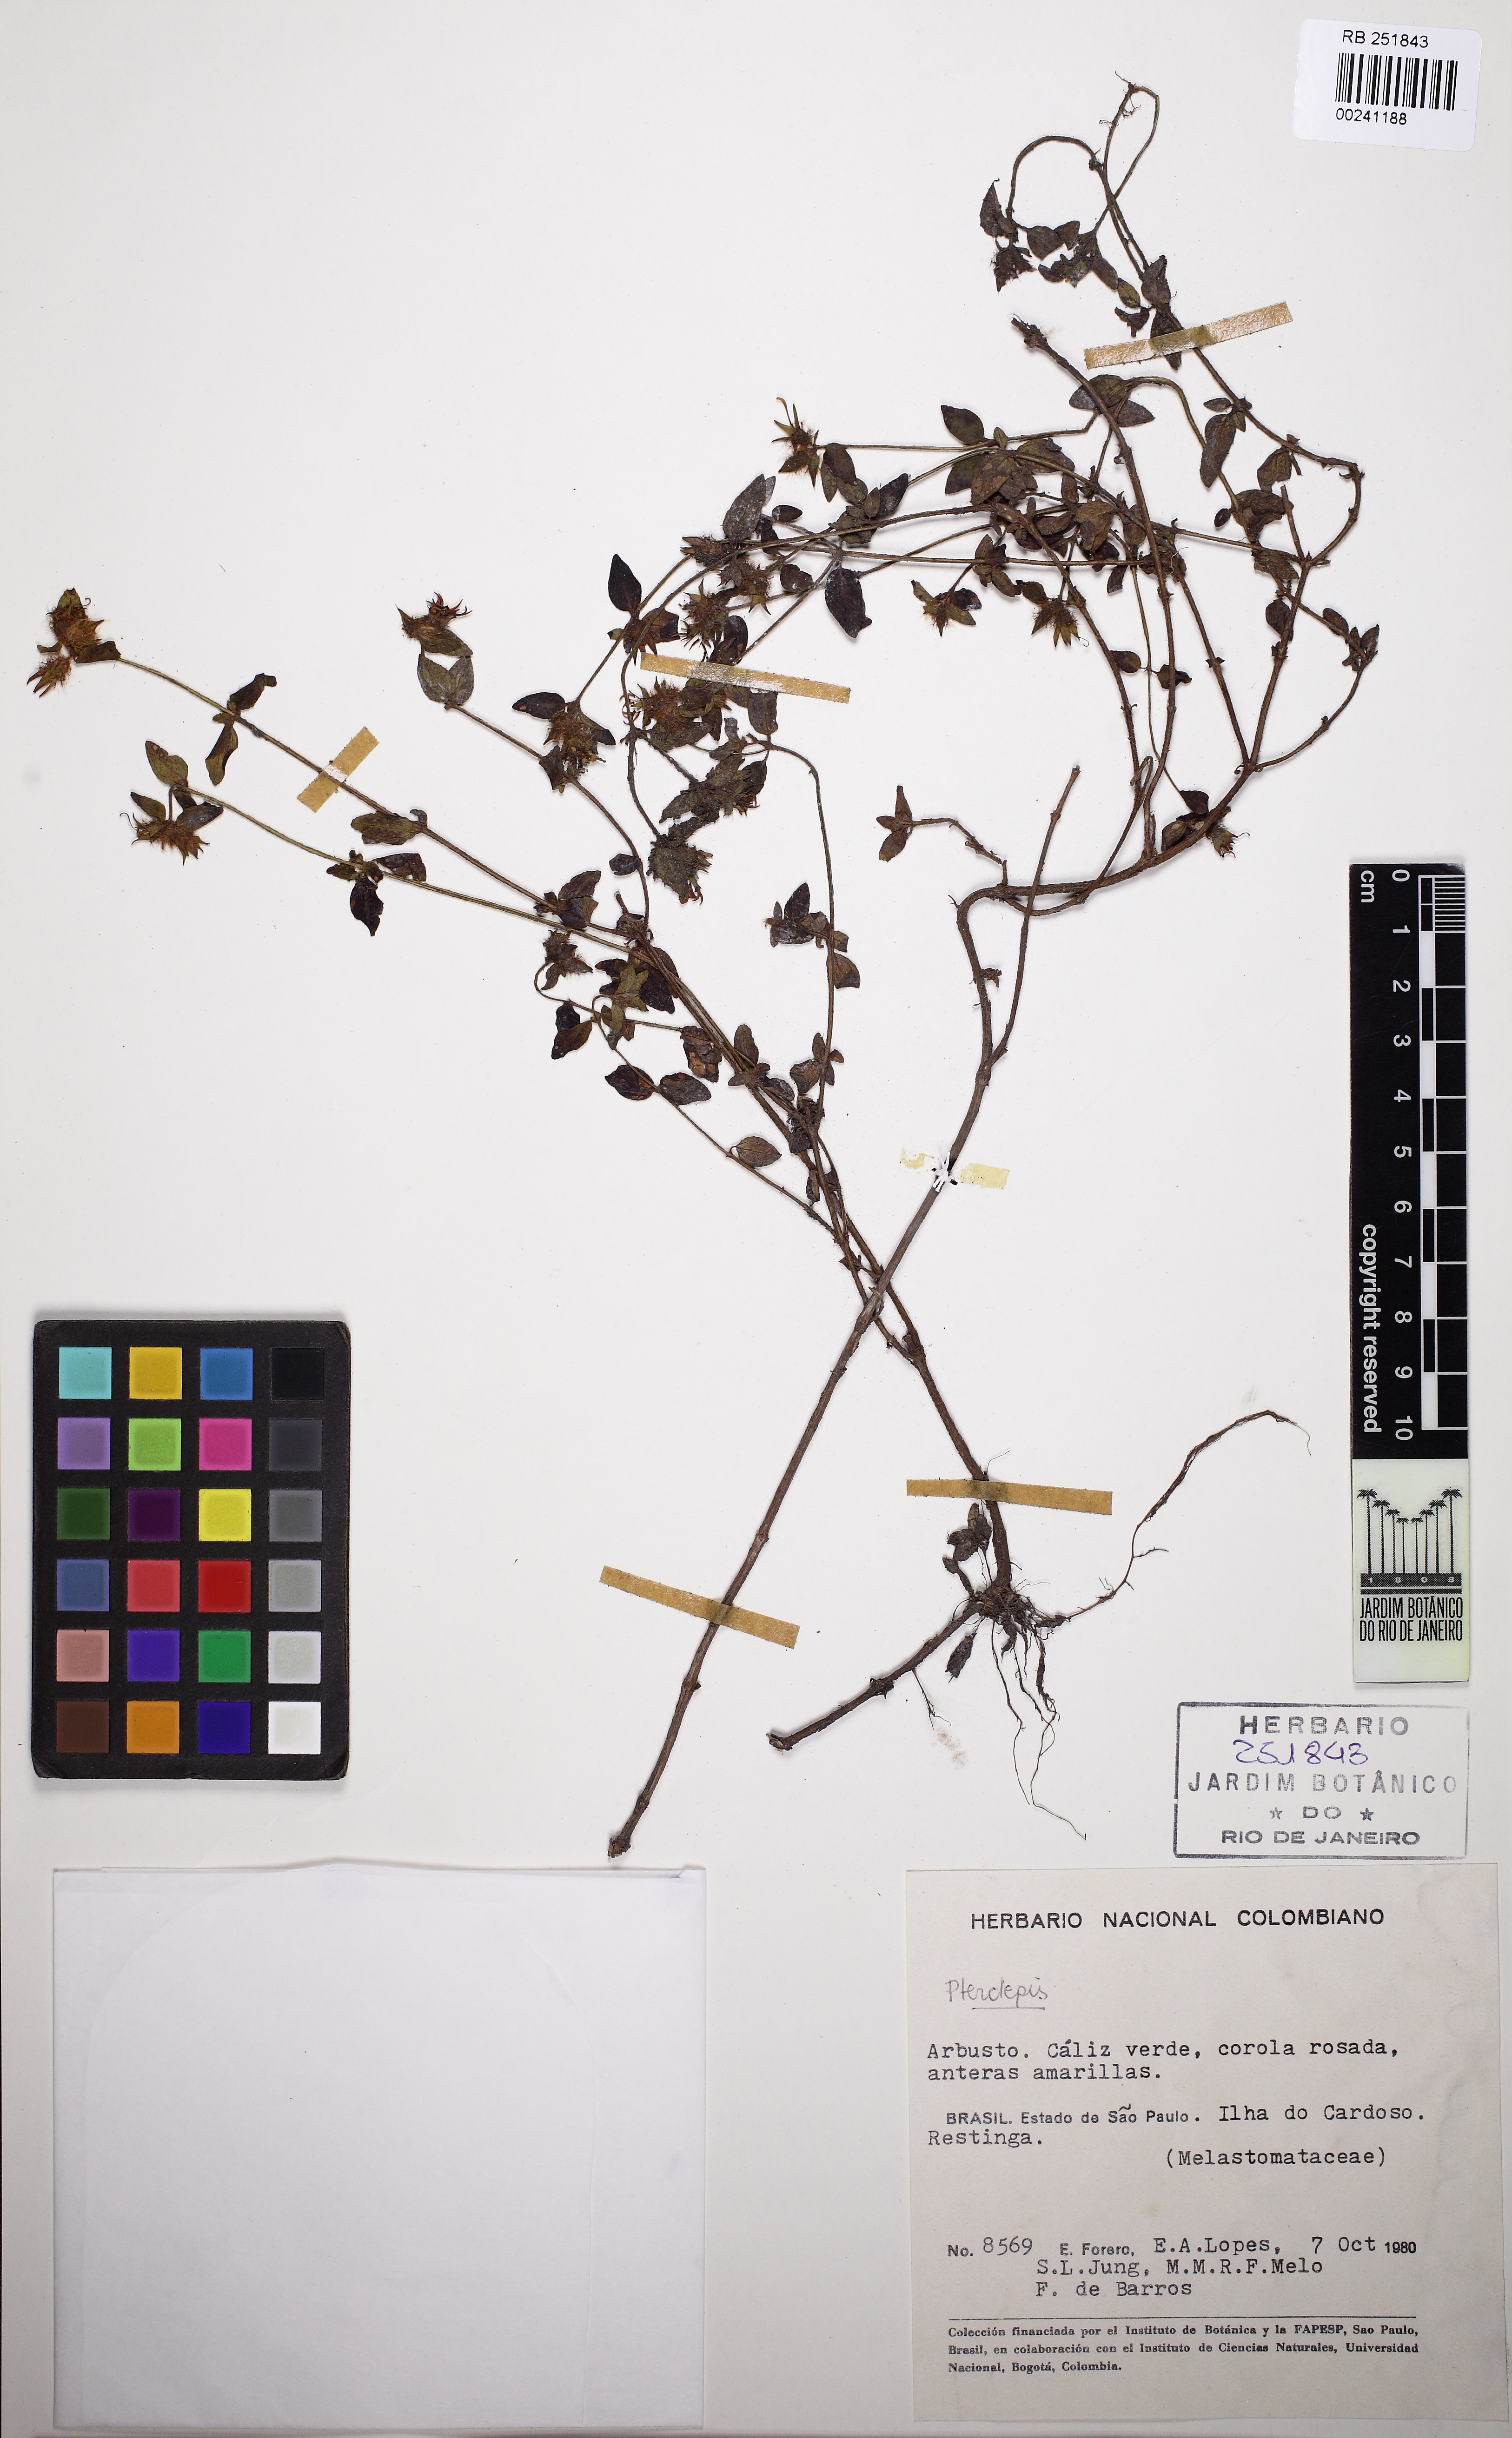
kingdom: Plantae
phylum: Tracheophyta
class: Magnoliopsida
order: Myrtales
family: Melastomataceae
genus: Pterolepis
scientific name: Pterolepis
